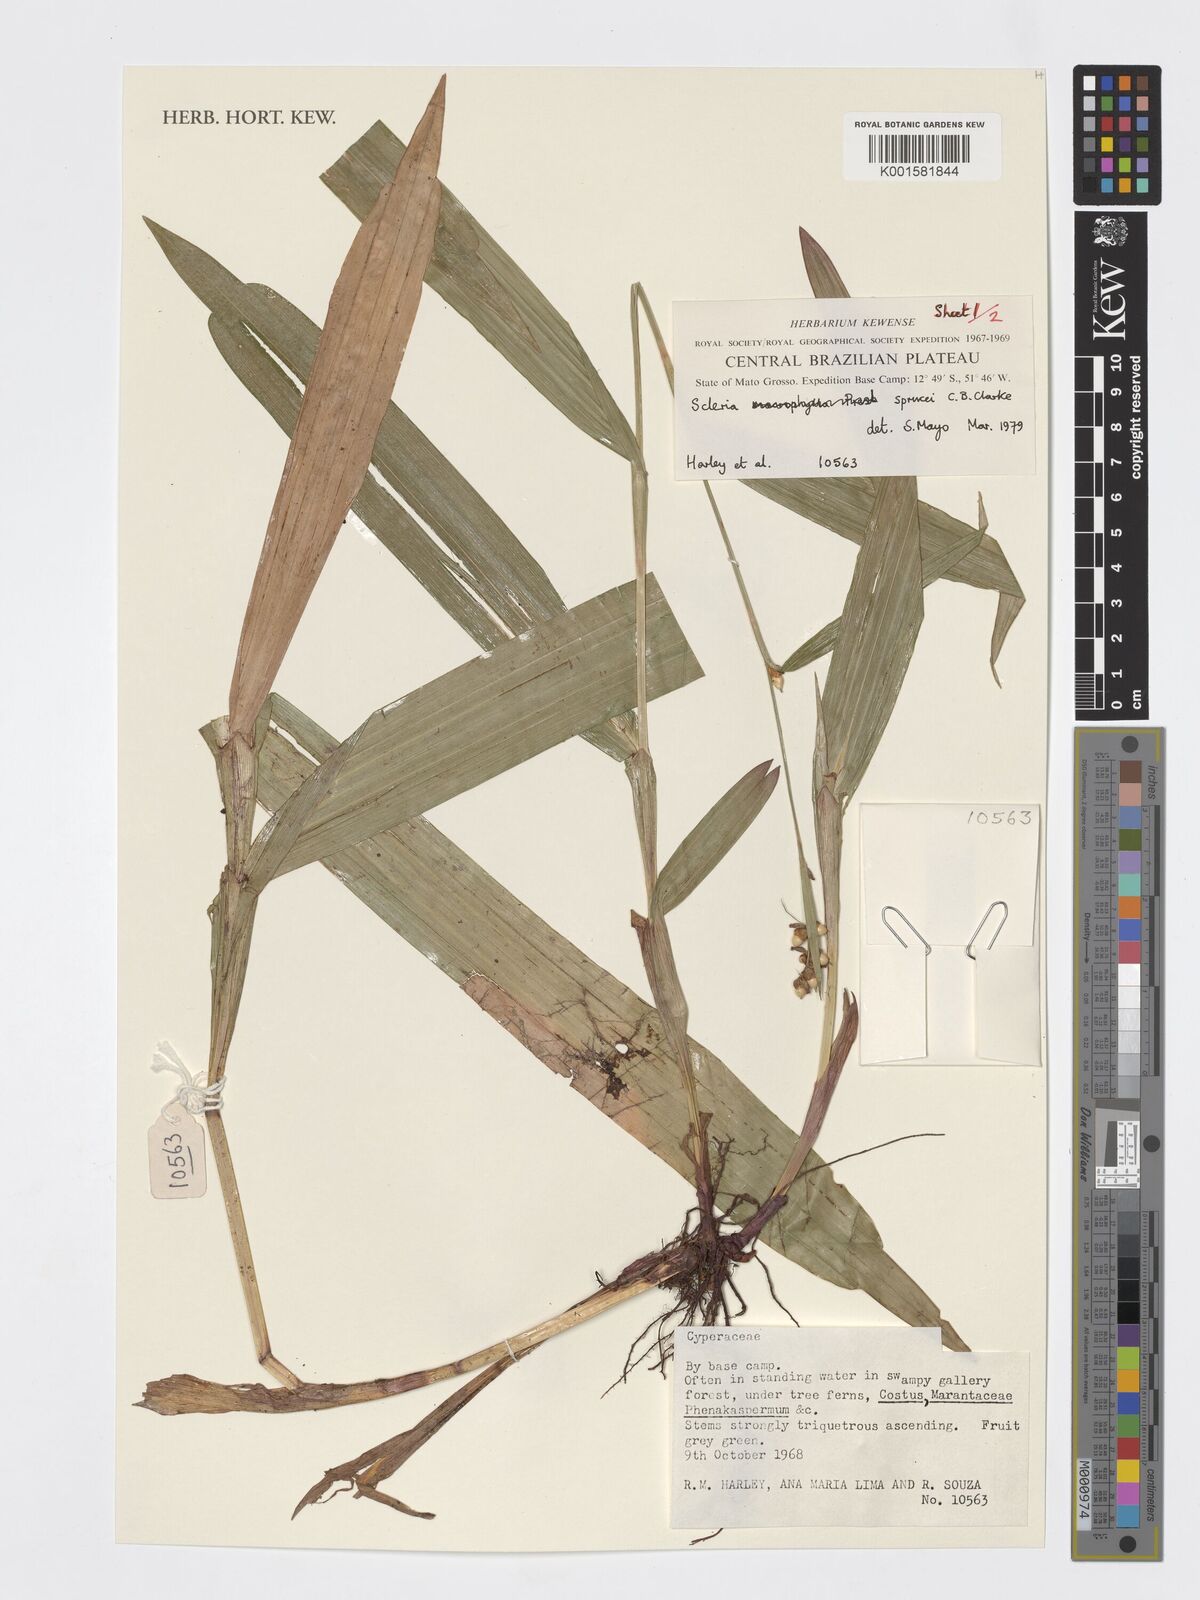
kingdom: Plantae
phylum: Tracheophyta
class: Liliopsida
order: Poales
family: Cyperaceae
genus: Scleria
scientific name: Scleria sprucei
